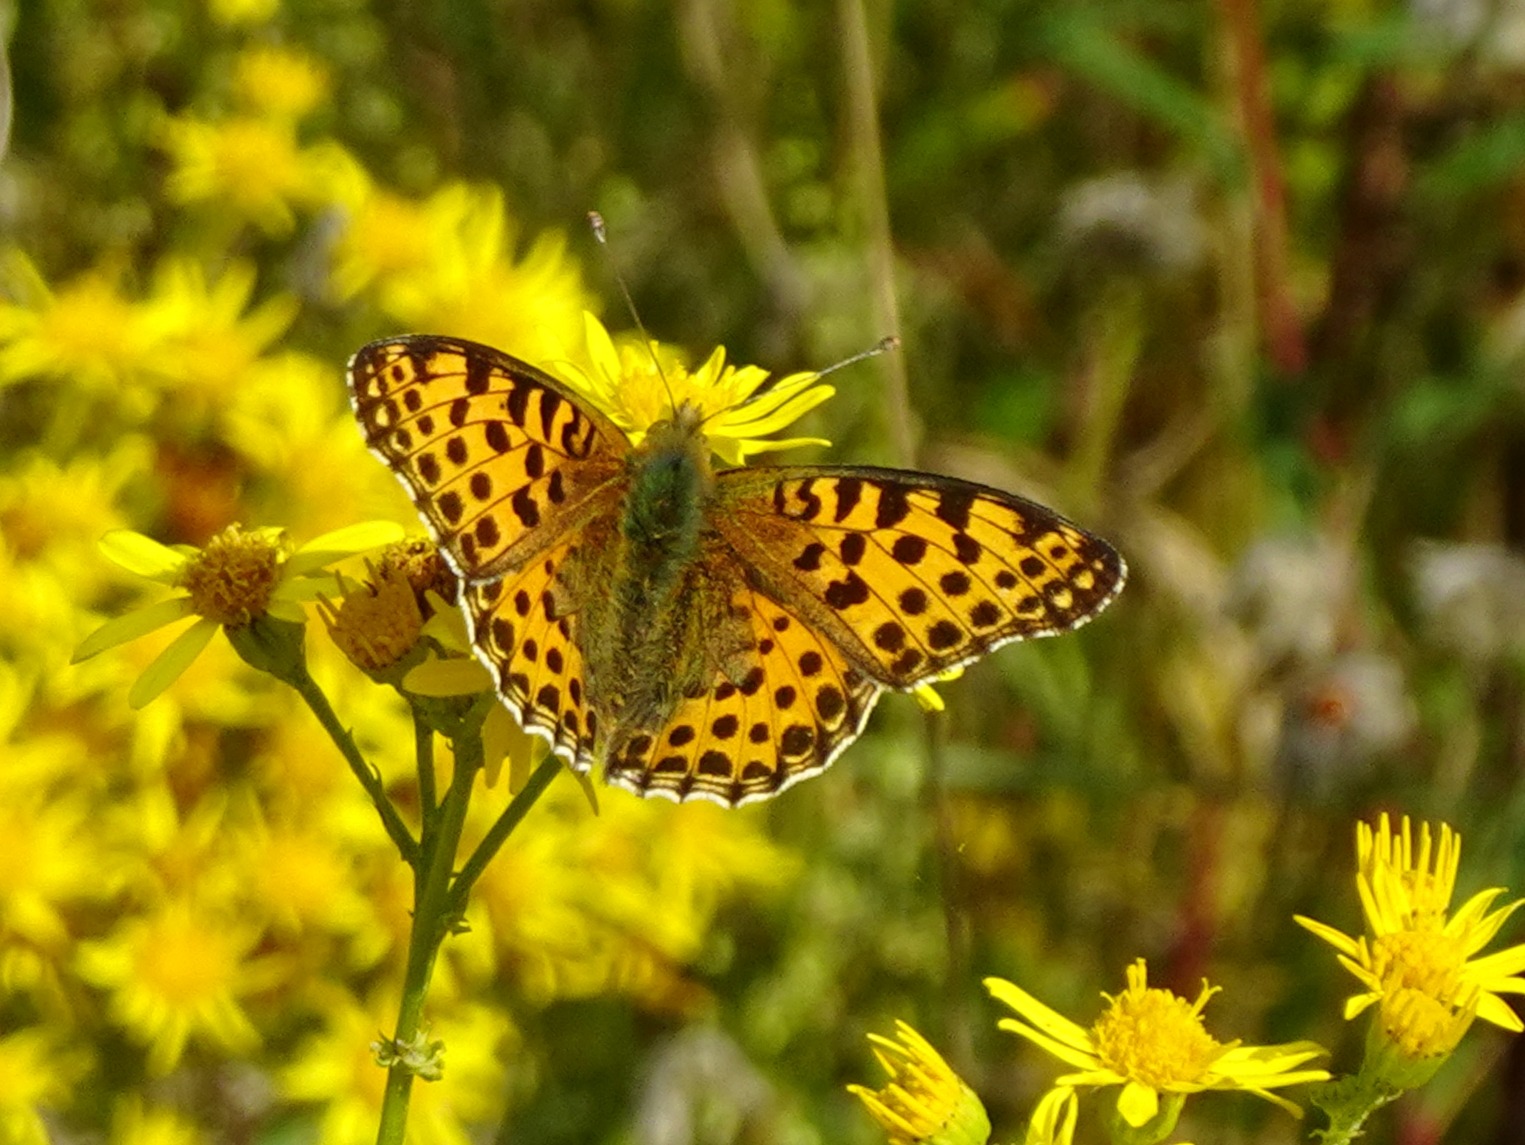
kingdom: Animalia
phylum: Arthropoda
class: Insecta
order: Lepidoptera
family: Nymphalidae
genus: Issoria
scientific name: Issoria lathonia
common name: Storplettet perlemorsommerfugl
